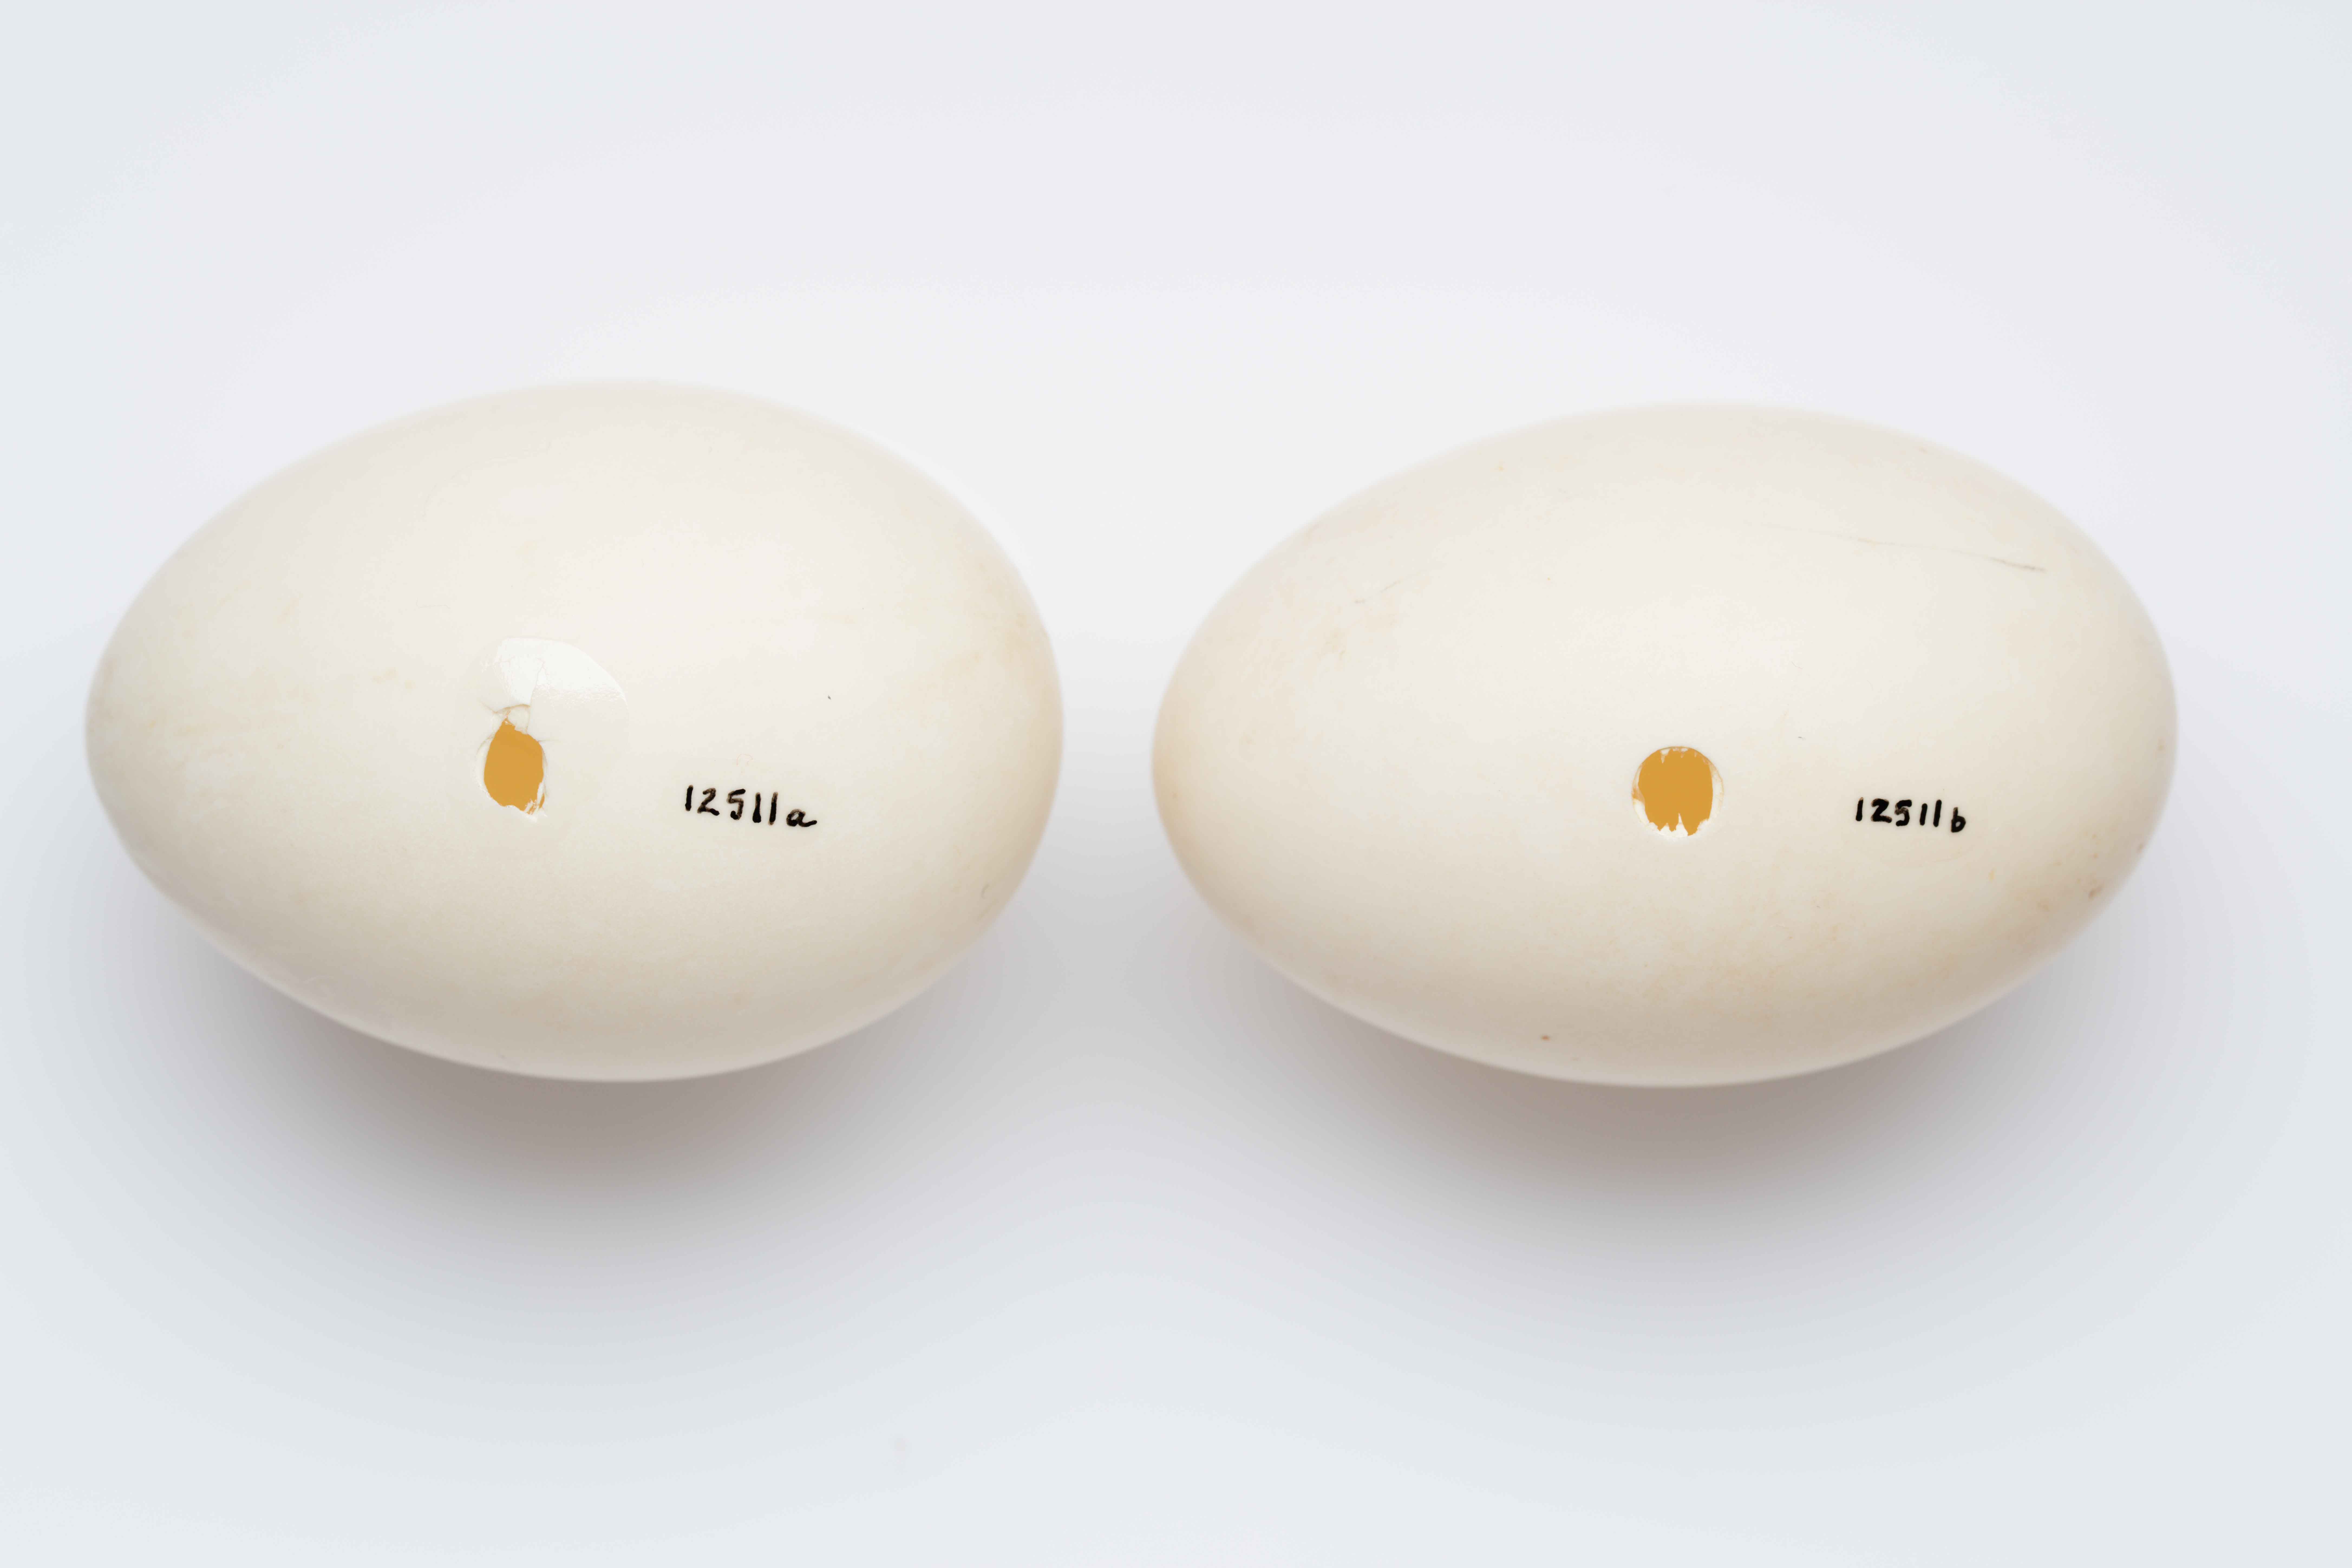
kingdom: Animalia
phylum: Chordata
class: Aves
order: Anseriformes
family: Anatidae
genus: Hymenolaimus
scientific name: Hymenolaimus malacorhynchos
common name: Blue duck
